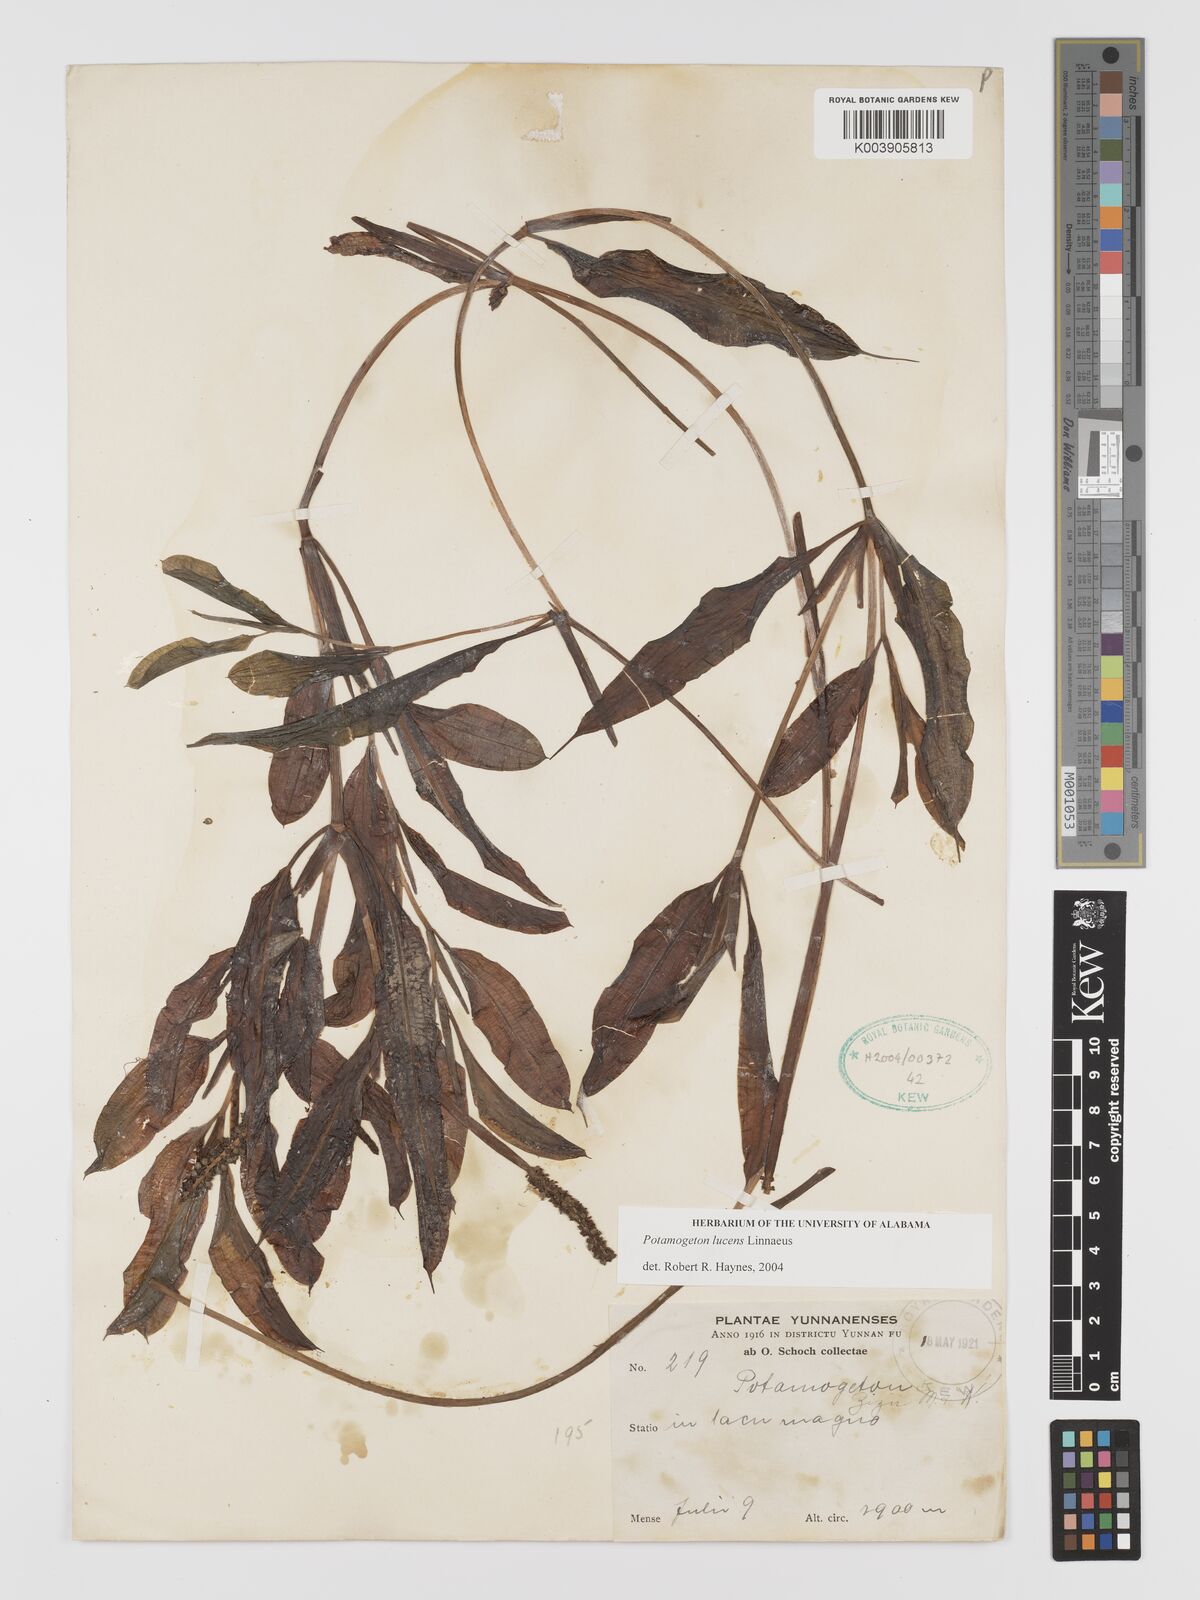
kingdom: Plantae
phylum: Tracheophyta
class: Liliopsida
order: Alismatales
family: Potamogetonaceae
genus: Potamogeton
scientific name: Potamogeton lucens
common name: Shining pondweed
